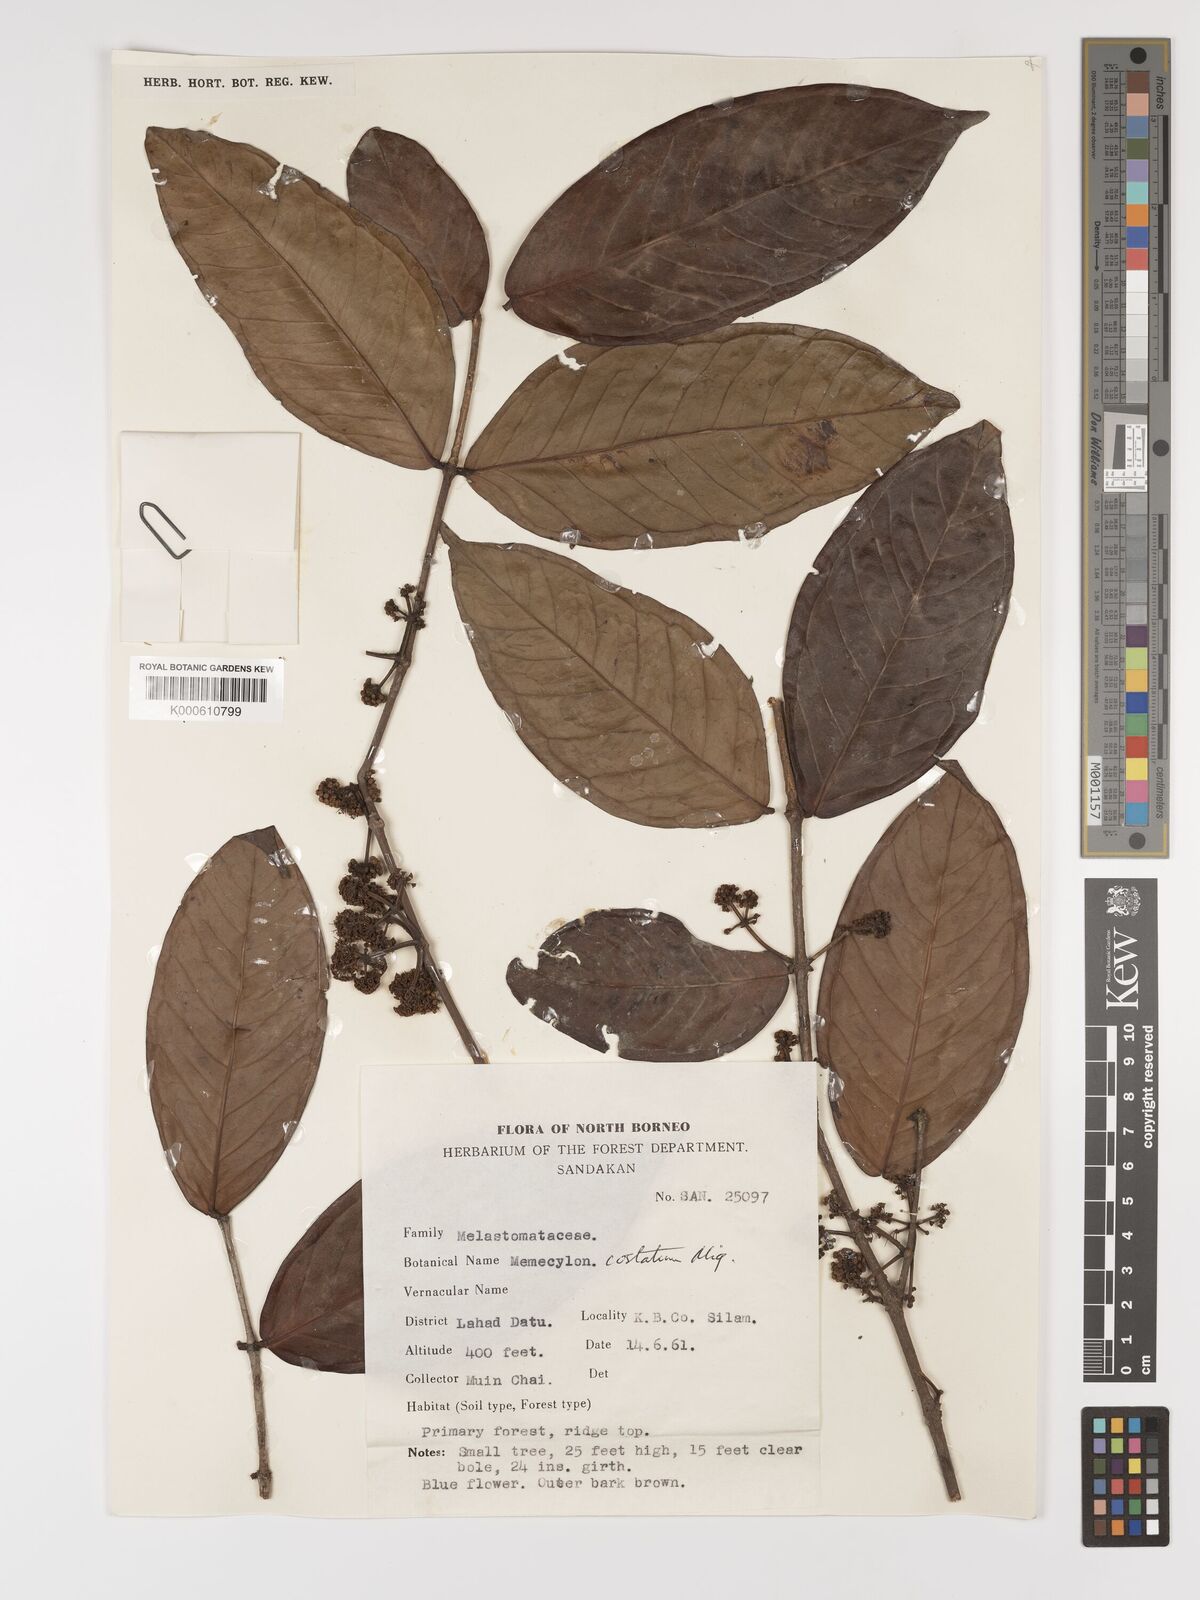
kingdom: Plantae
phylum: Tracheophyta
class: Magnoliopsida
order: Myrtales
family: Melastomataceae
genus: Memecylon
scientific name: Memecylon paniculatum
